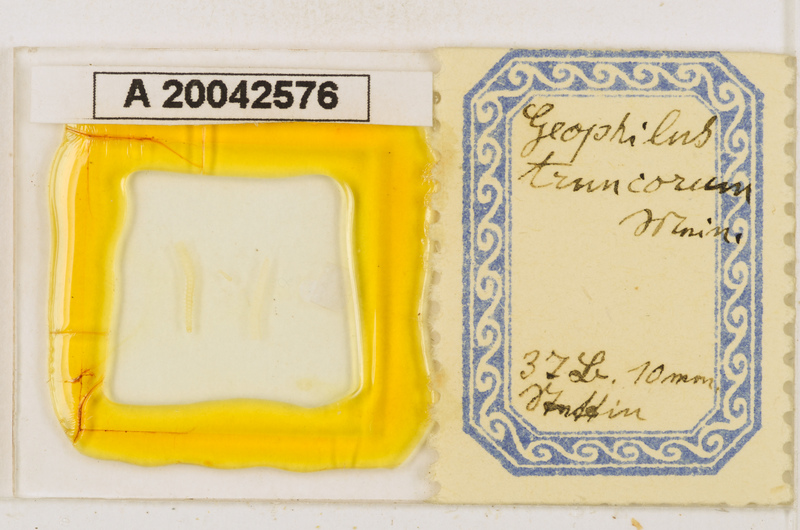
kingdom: Animalia
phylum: Arthropoda
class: Chilopoda
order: Geophilomorpha
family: Geophilidae
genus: Geophilus
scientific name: Geophilus truncorum
